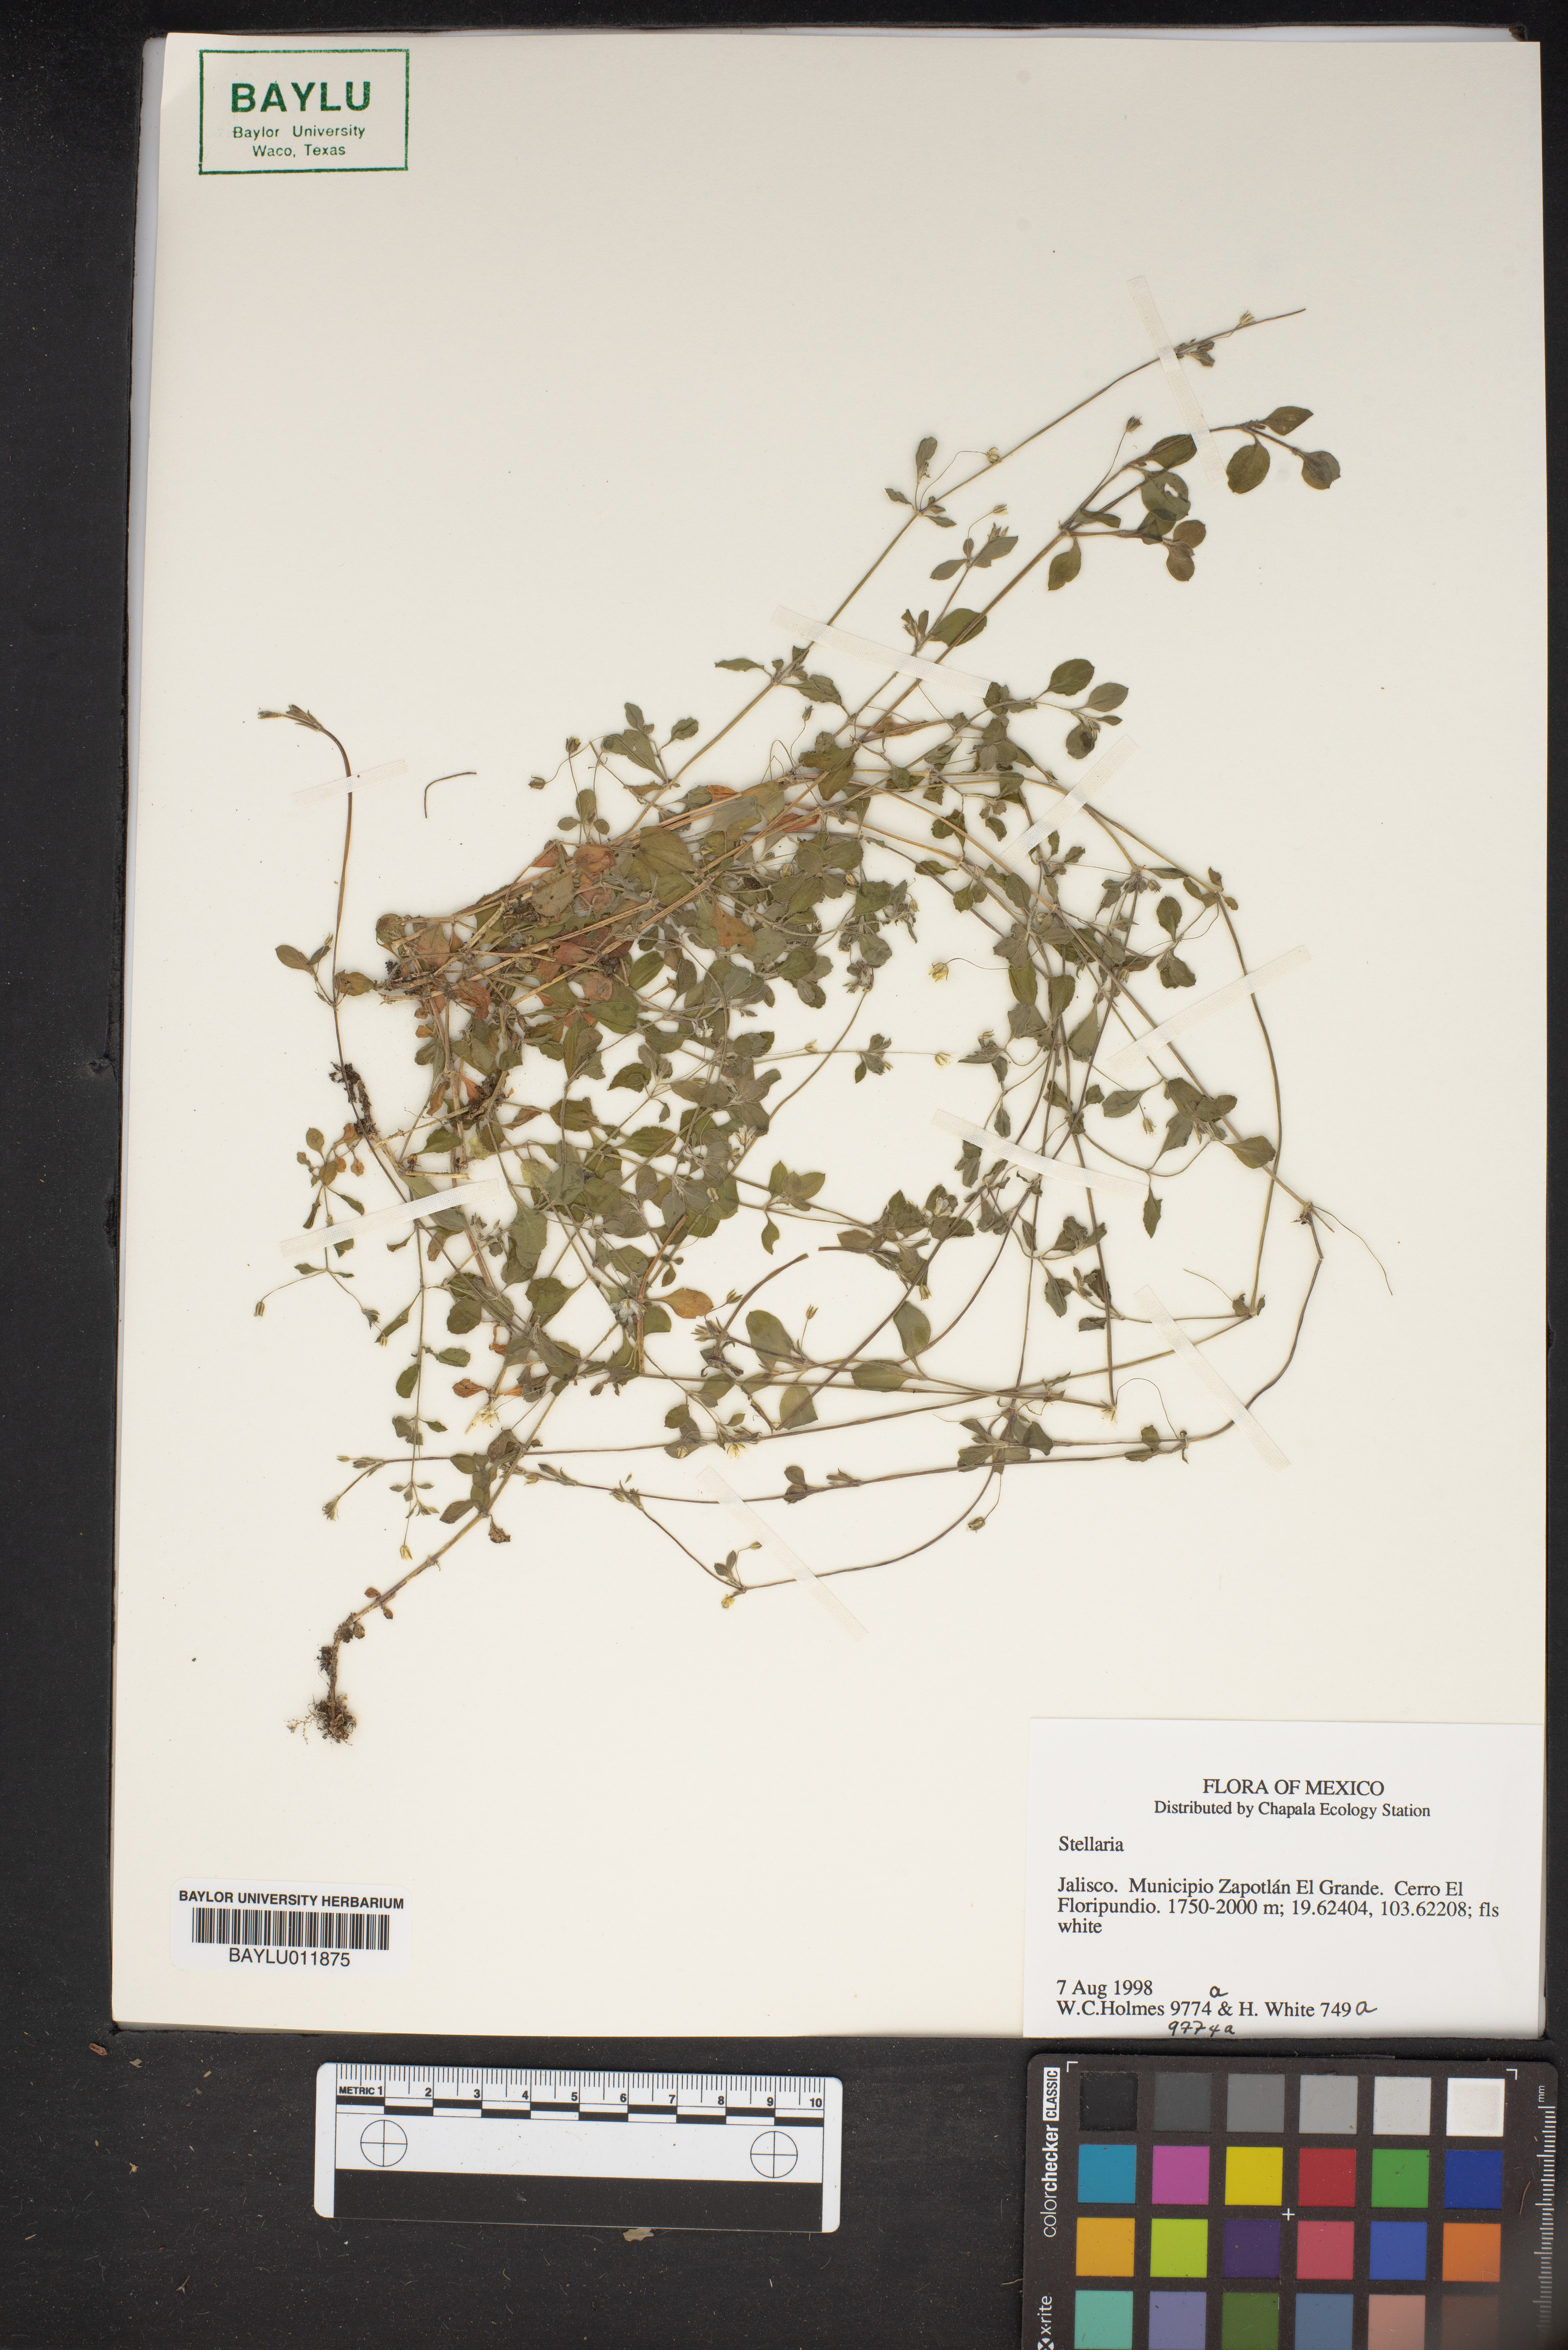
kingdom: Plantae
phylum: Tracheophyta
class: Magnoliopsida
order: Caryophyllales
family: Caryophyllaceae
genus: Stellaria
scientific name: Stellaria
